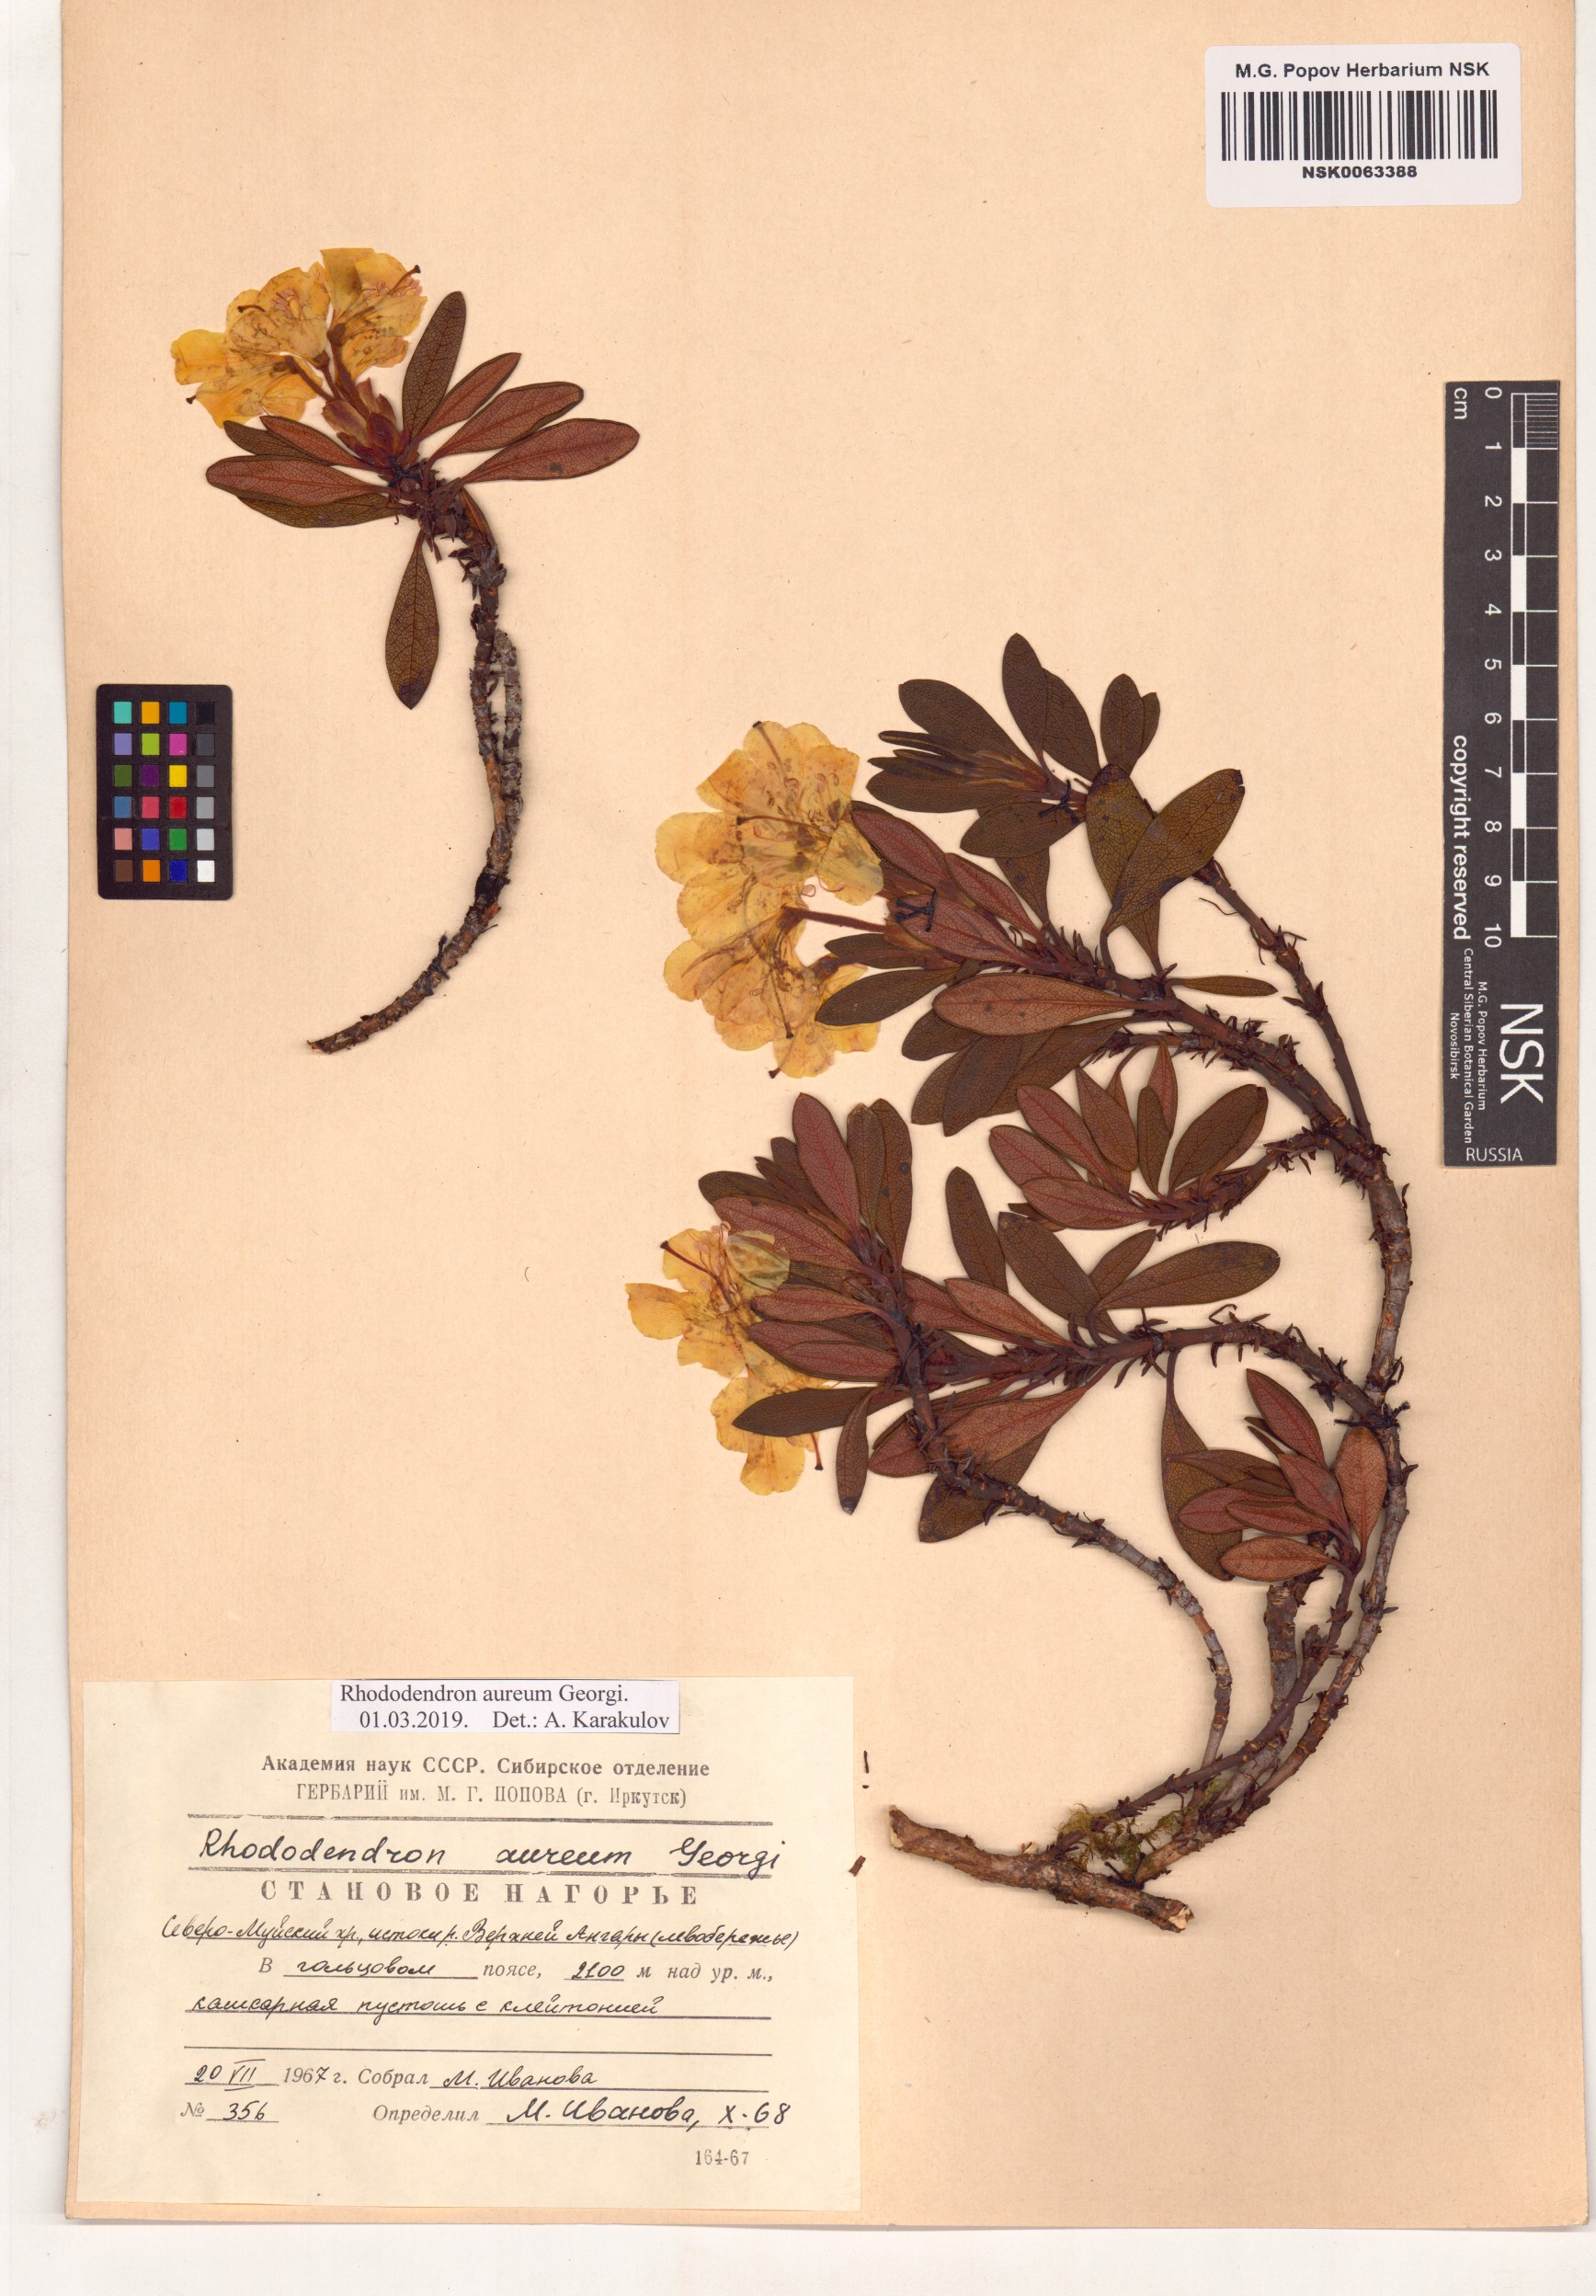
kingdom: Plantae
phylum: Tracheophyta
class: Magnoliopsida
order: Ericales
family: Ericaceae
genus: Rhododendron
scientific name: Rhododendron aureum
